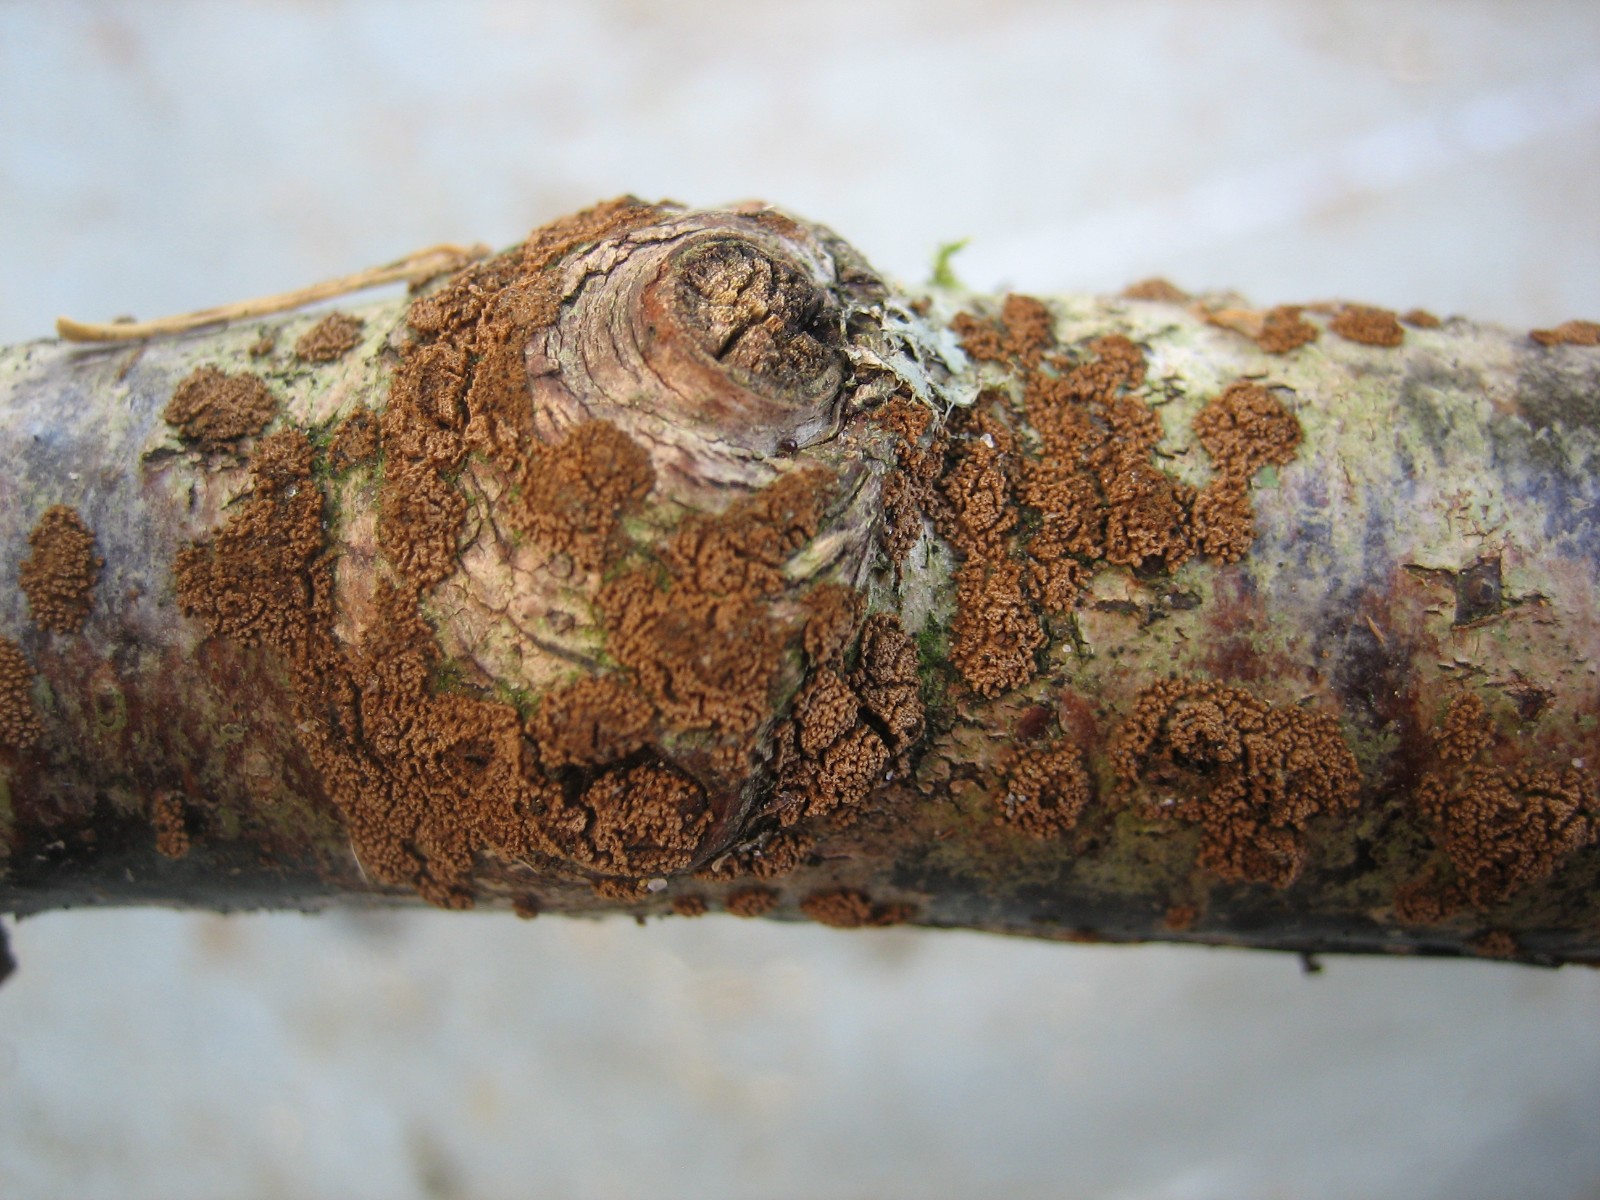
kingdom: Fungi
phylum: Basidiomycota
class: Agaricomycetes
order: Agaricales
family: Niaceae
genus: Merismodes
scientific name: Merismodes
